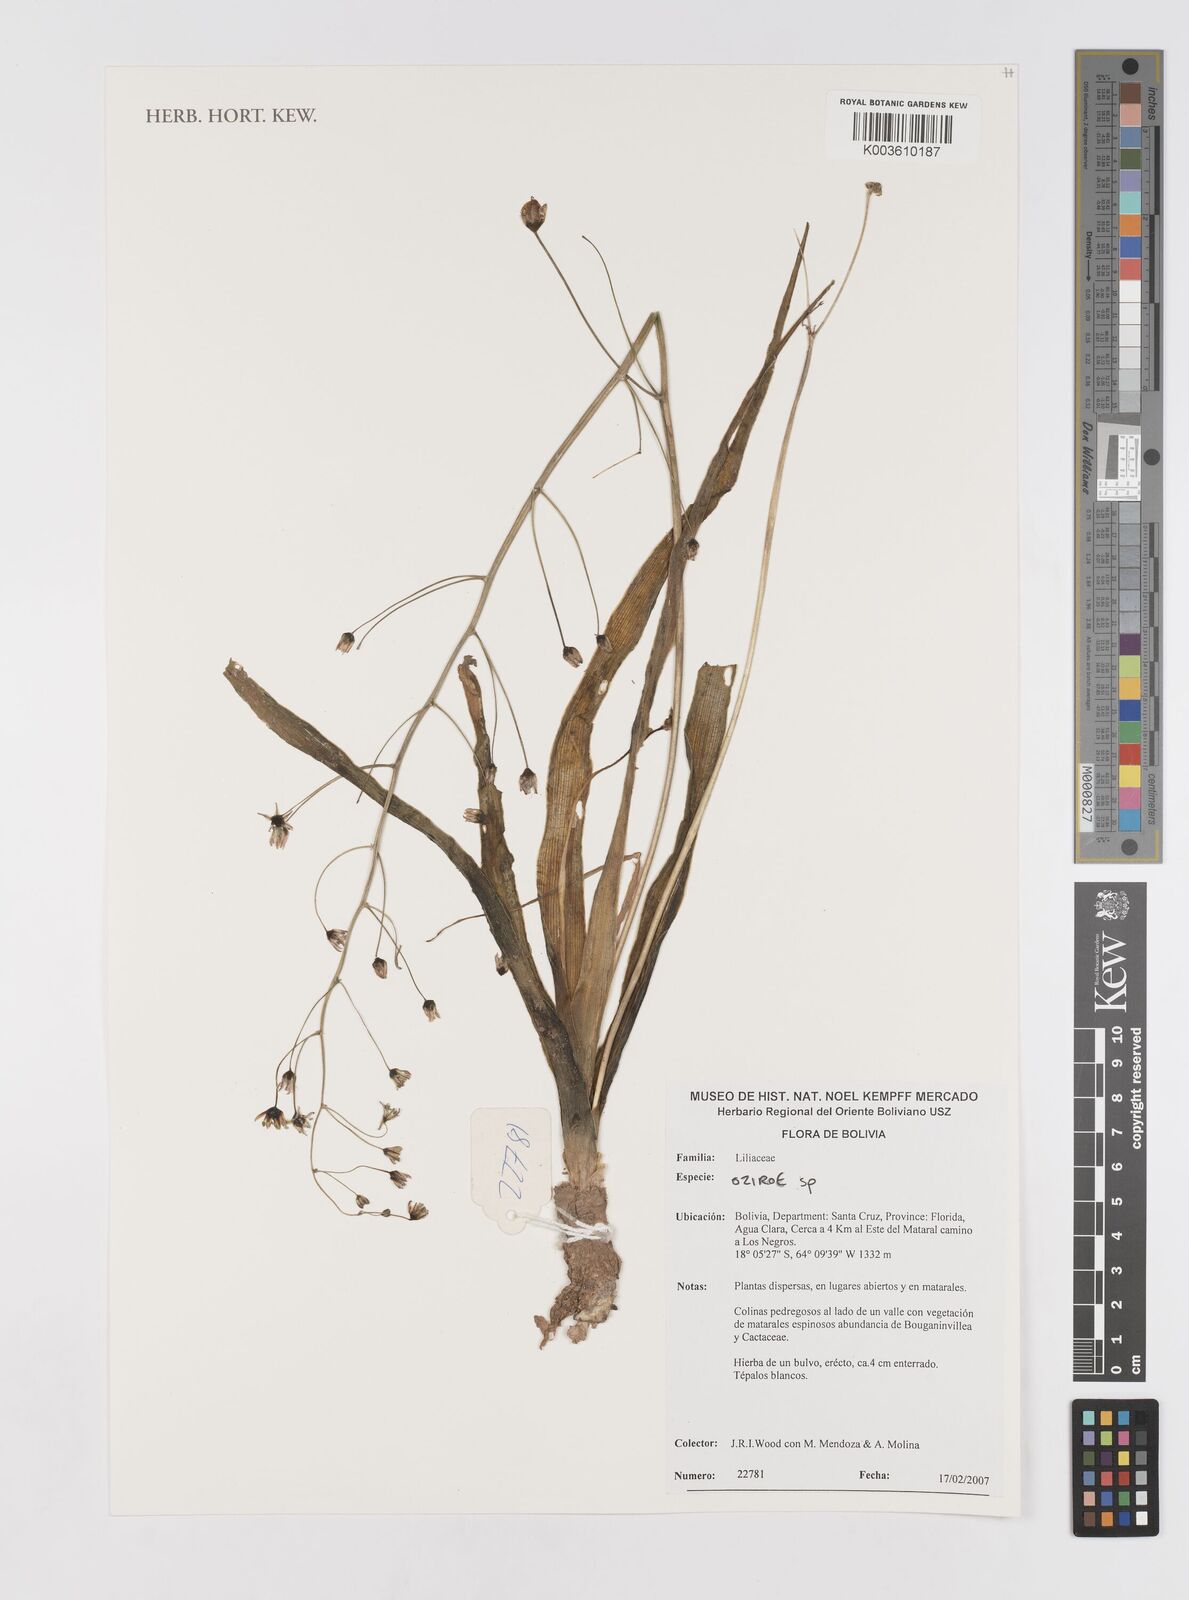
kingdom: Plantae
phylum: Tracheophyta
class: Liliopsida
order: Liliales
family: Liliaceae
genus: Lilium
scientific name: Lilium formosanum
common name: Formosa lily
